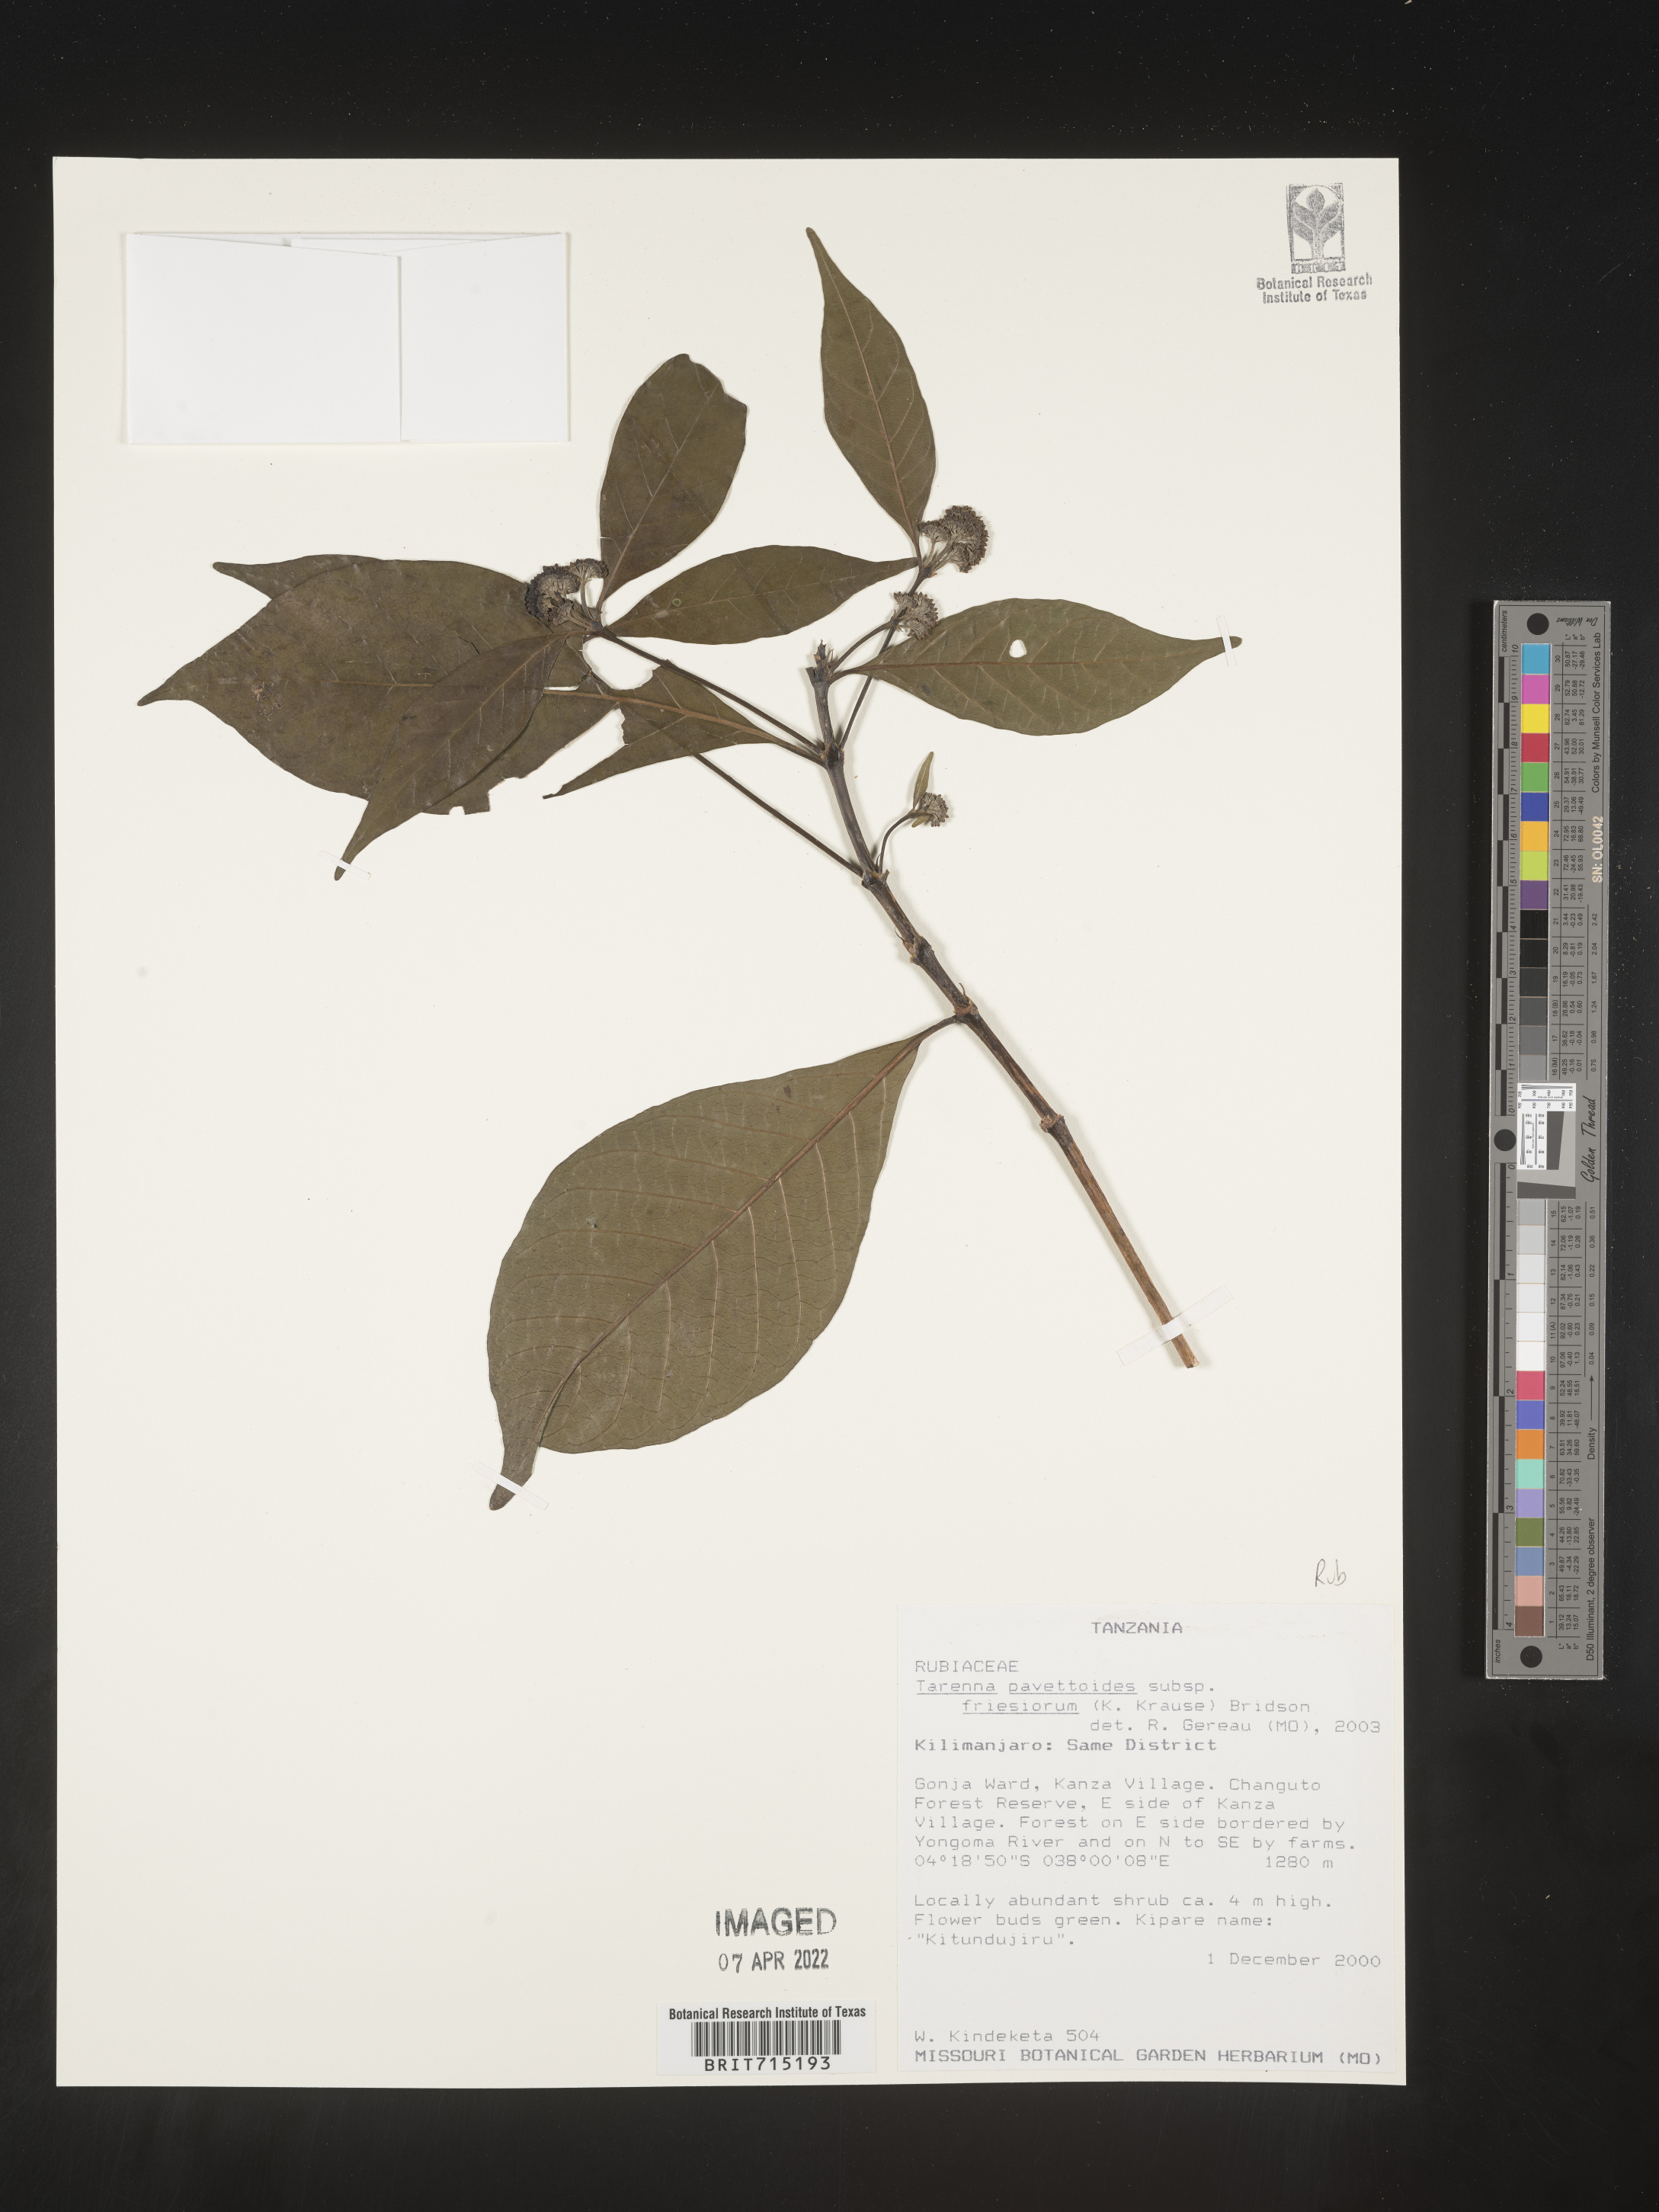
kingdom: Plantae
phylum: Tracheophyta
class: Magnoliopsida
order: Gentianales
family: Rubiaceae
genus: Tarenna
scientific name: Tarenna
